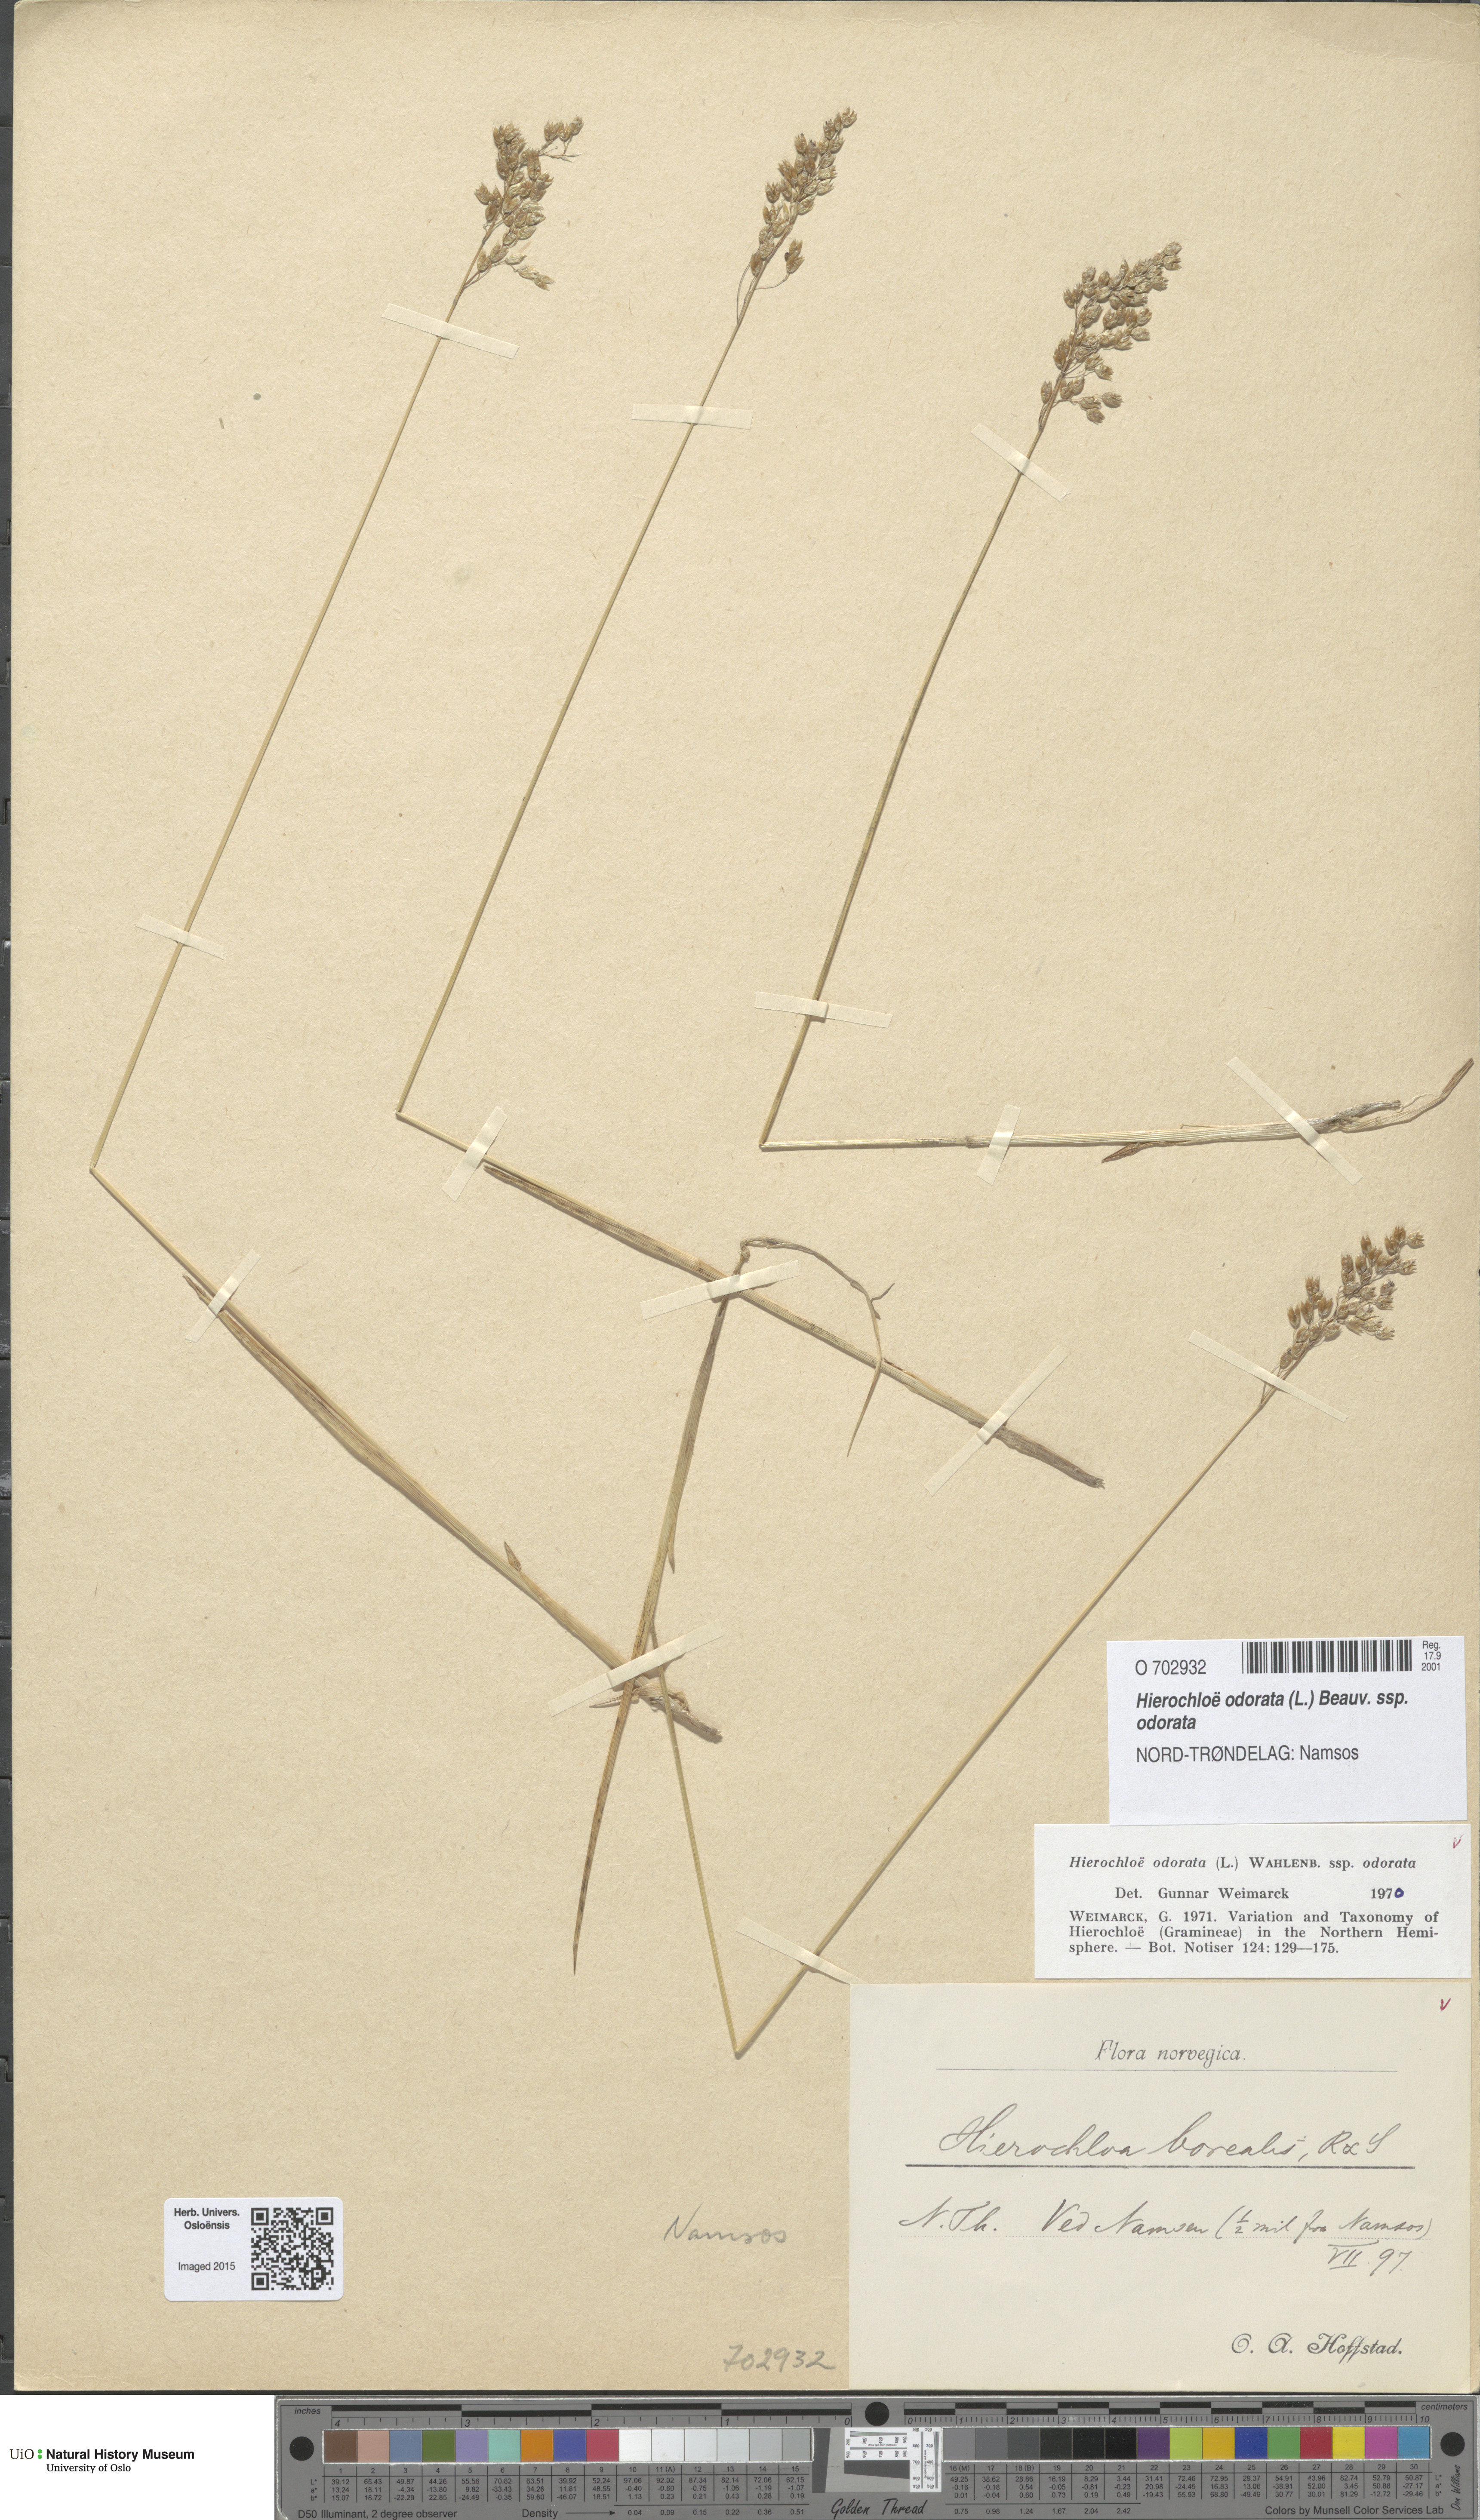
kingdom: Plantae
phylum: Tracheophyta
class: Liliopsida
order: Poales
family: Poaceae
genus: Anthoxanthum
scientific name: Anthoxanthum nitens
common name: Holy grass
